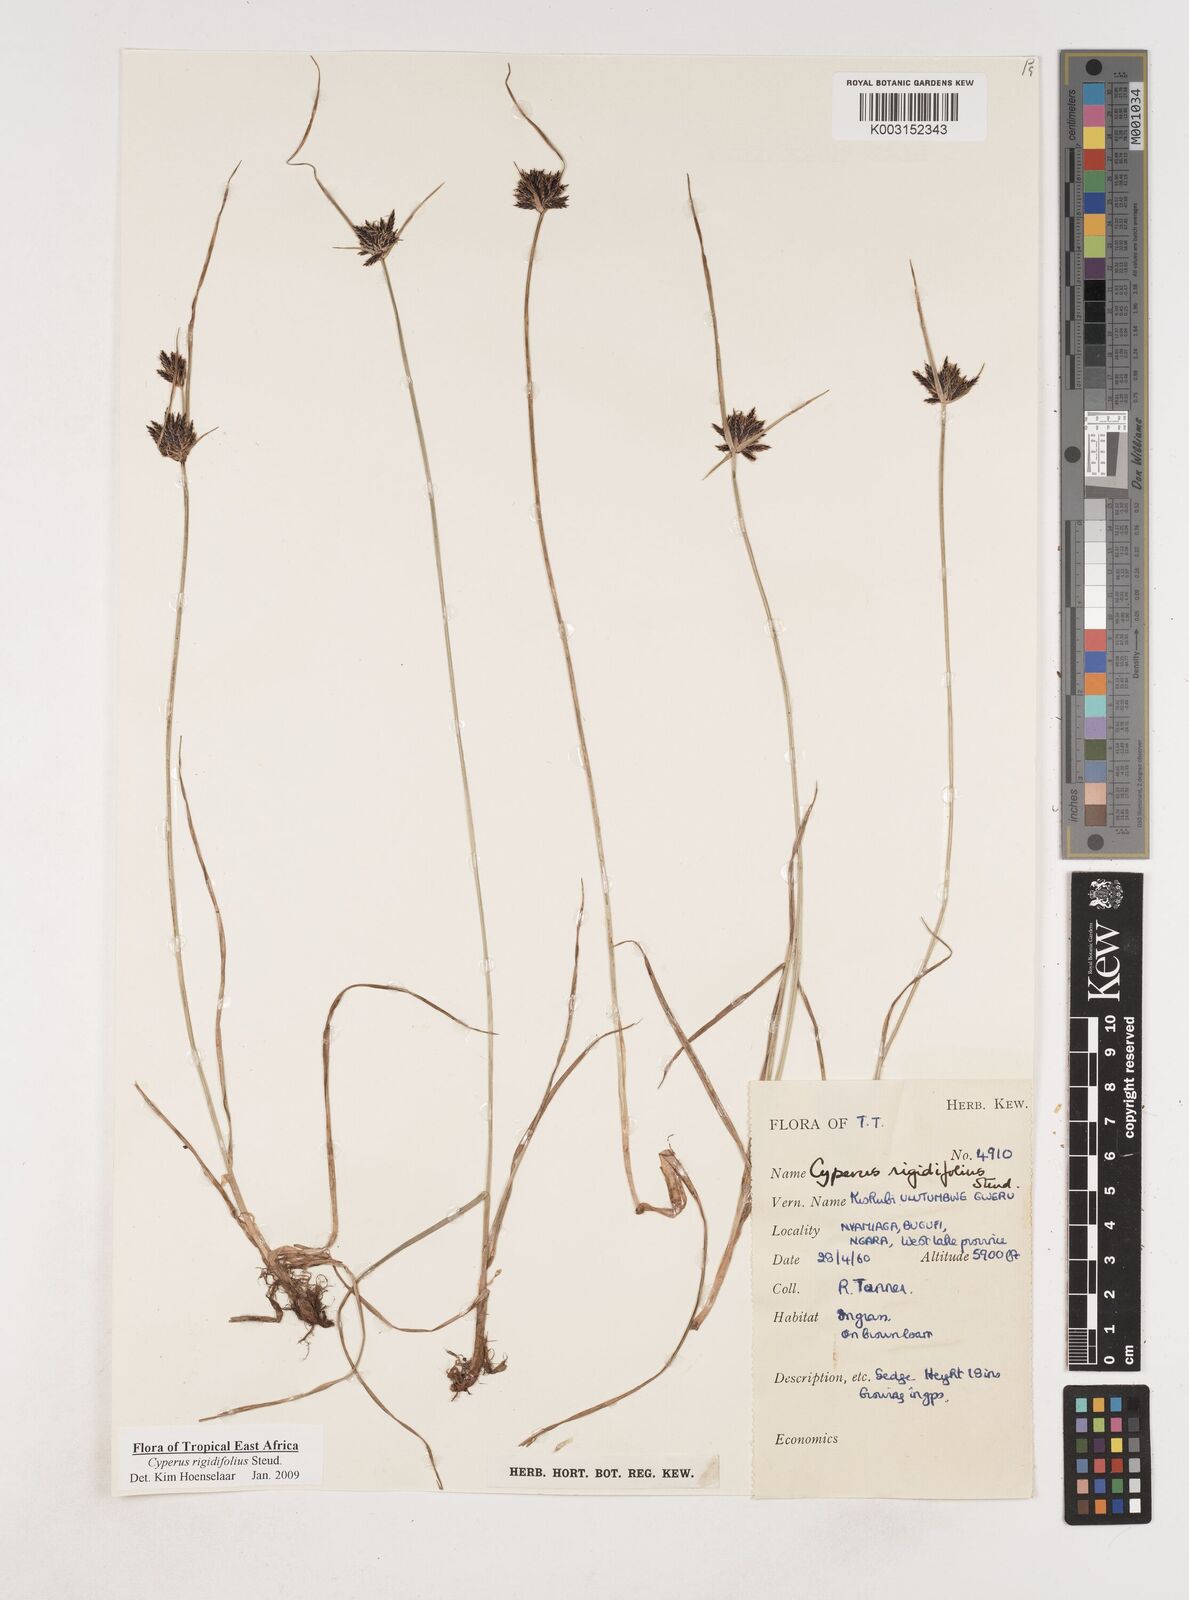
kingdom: Plantae
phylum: Tracheophyta
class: Liliopsida
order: Poales
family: Cyperaceae
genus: Cyperus
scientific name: Cyperus rigidifolius
